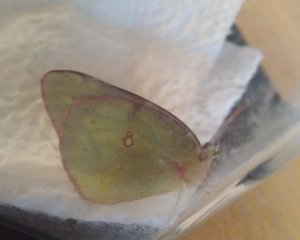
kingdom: Animalia
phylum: Arthropoda
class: Insecta
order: Lepidoptera
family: Pieridae
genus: Colias
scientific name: Colias philodice
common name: Clouded Sulphur
